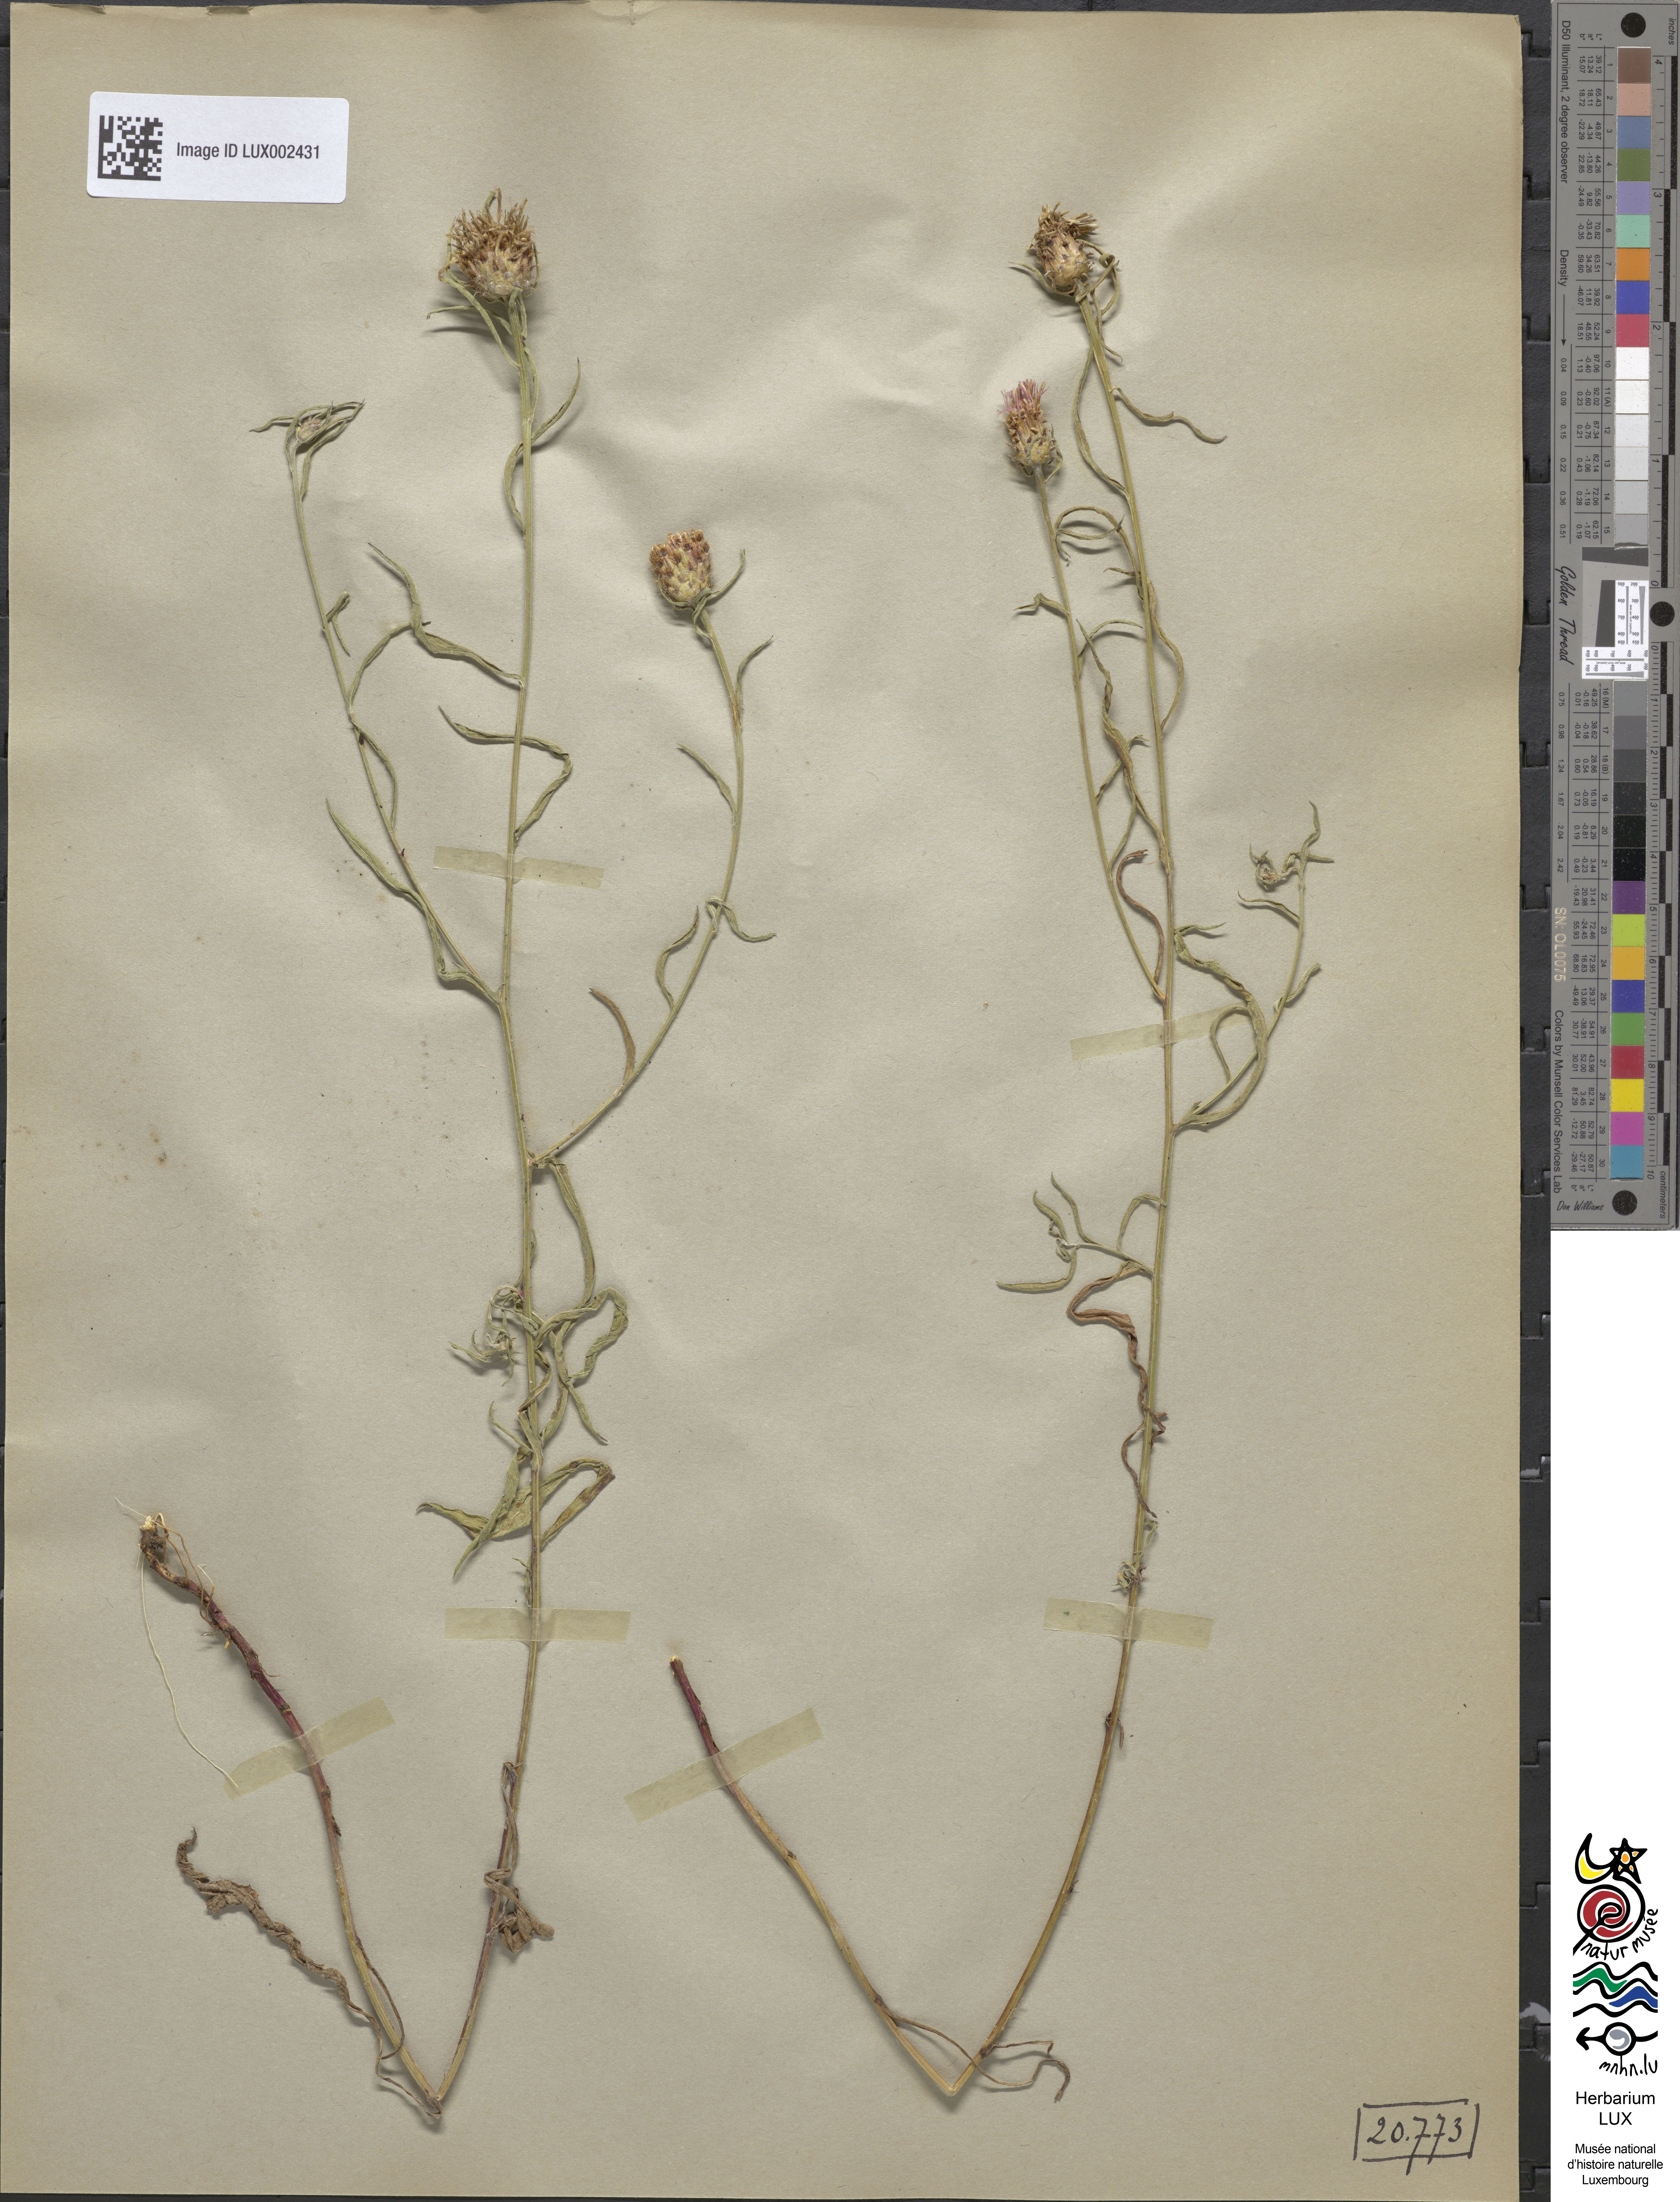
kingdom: Plantae
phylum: Tracheophyta
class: Magnoliopsida
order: Asterales
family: Asteraceae
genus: Centaurea
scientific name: Centaurea
